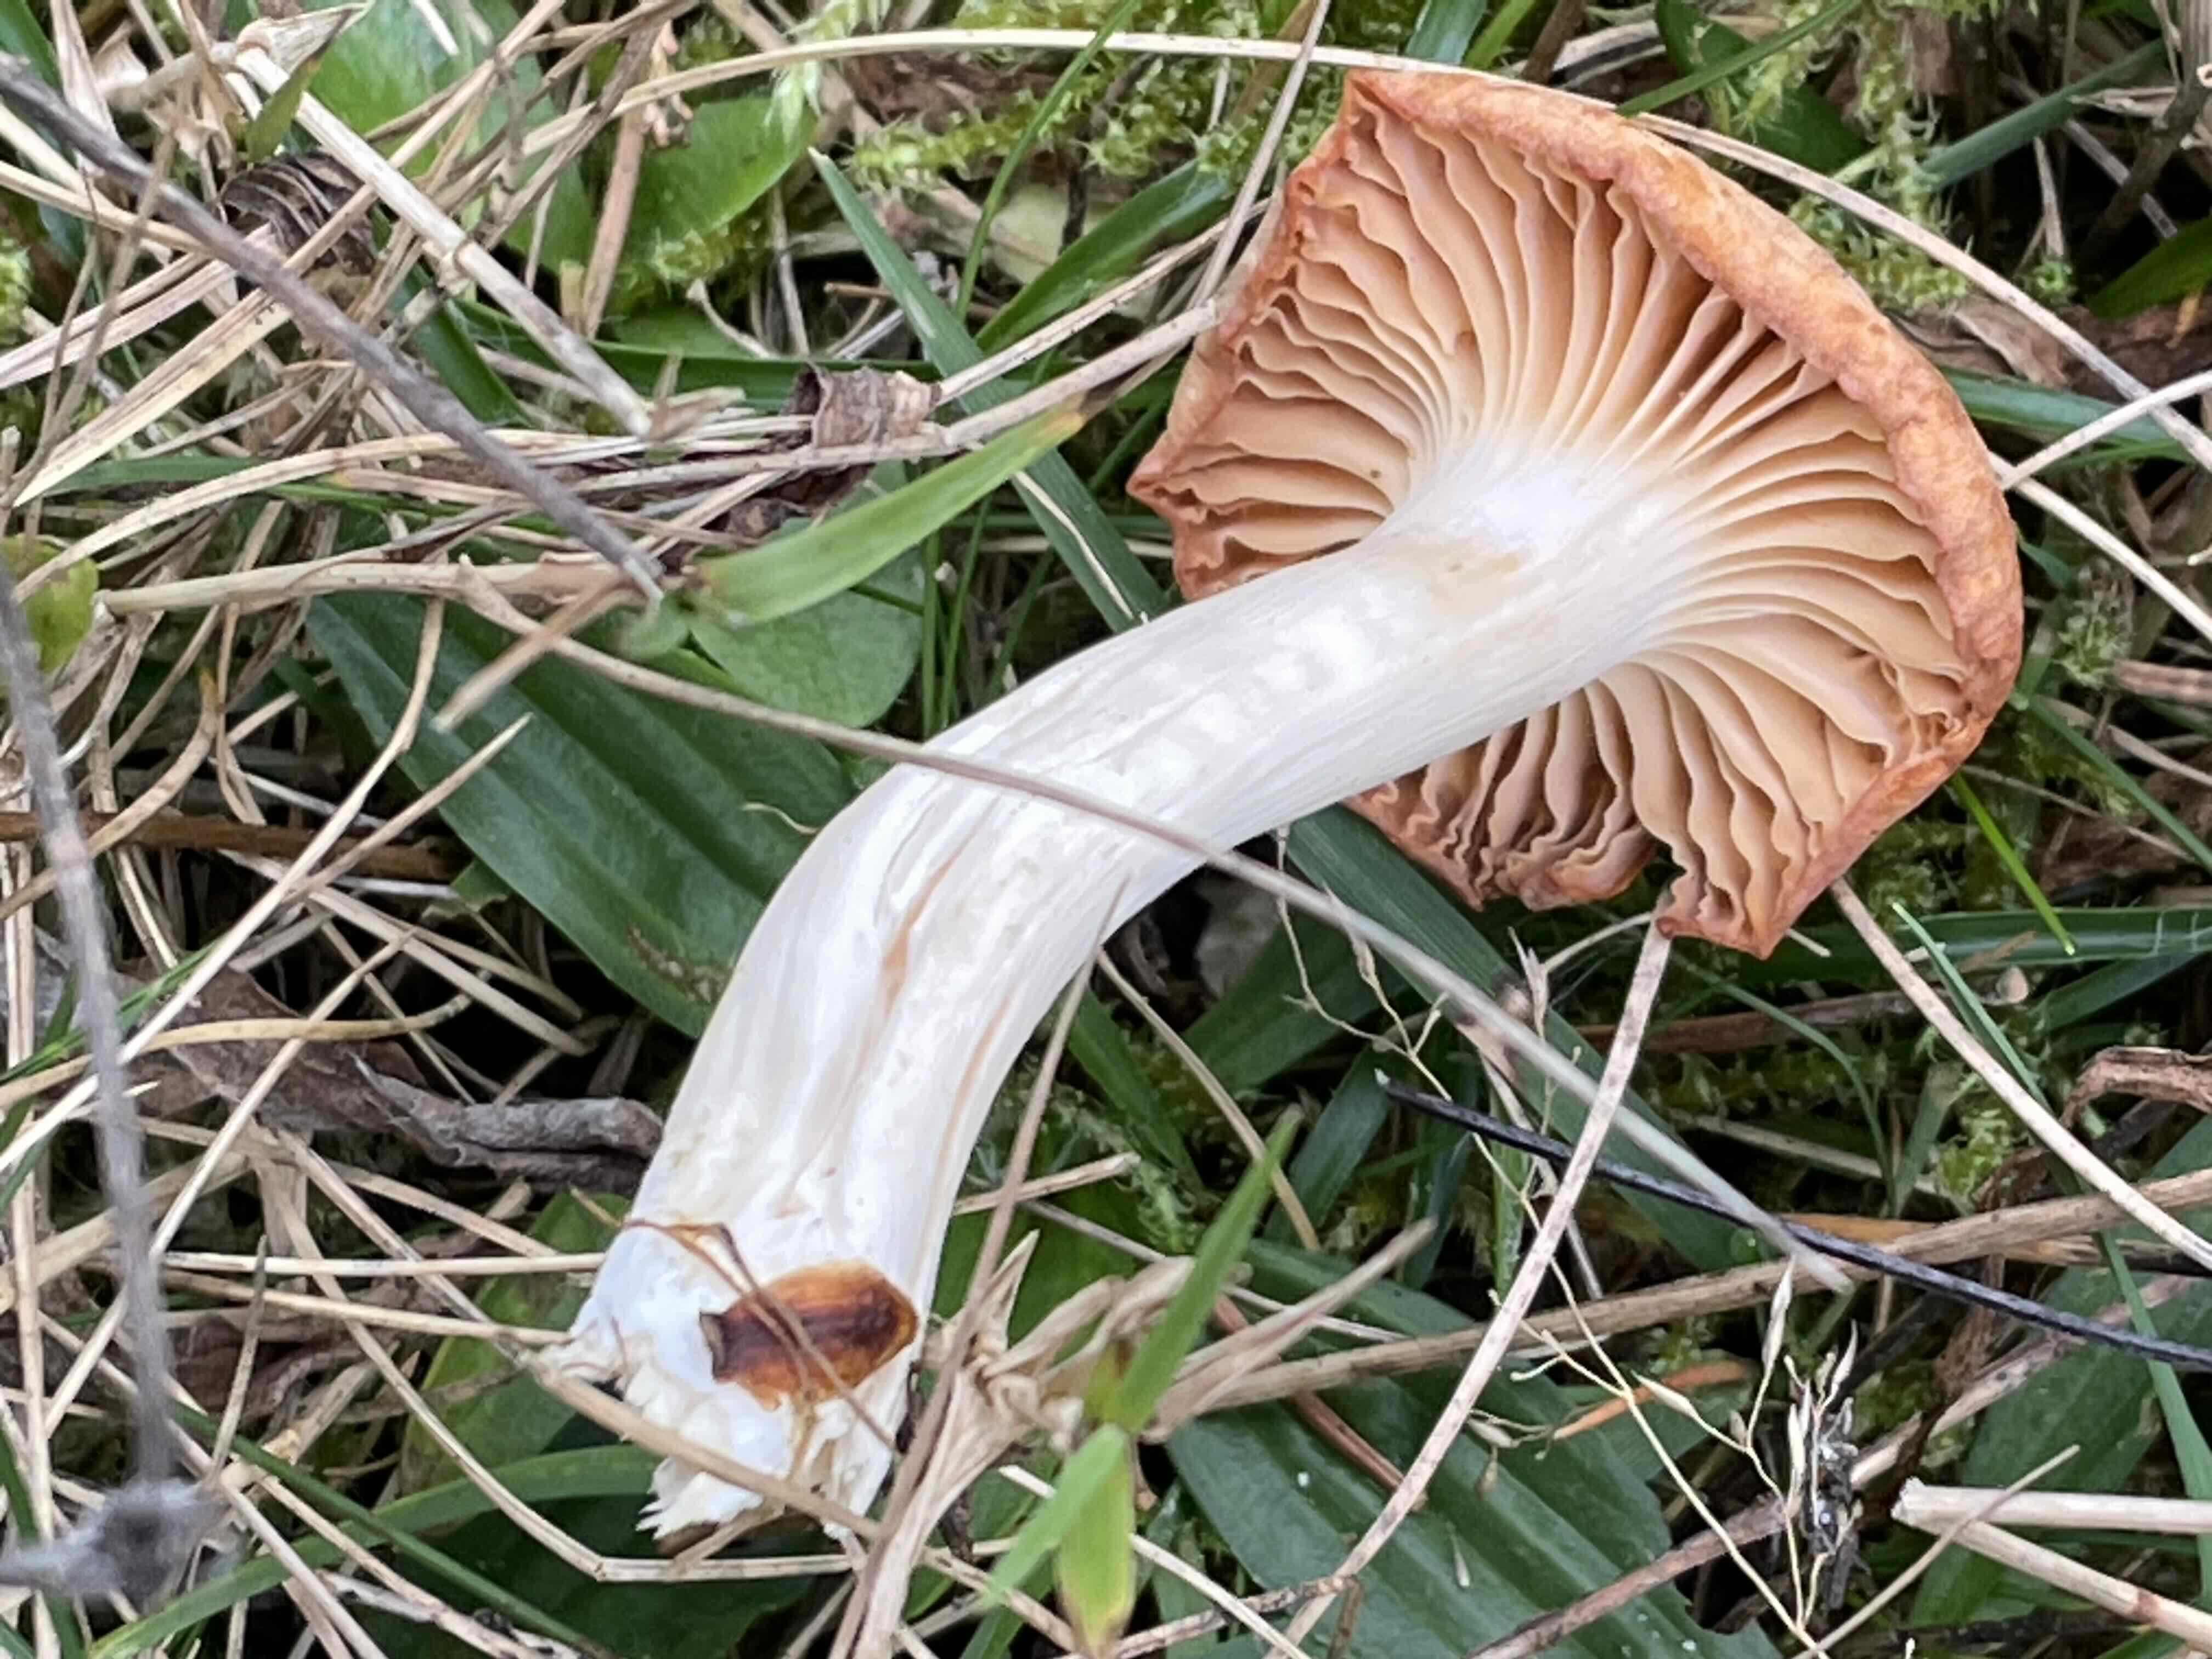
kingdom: Fungi
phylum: Basidiomycota
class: Agaricomycetes
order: Agaricales
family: Hygrophoraceae
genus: Cuphophyllus
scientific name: Cuphophyllus pratensis
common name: eng-vokshat
